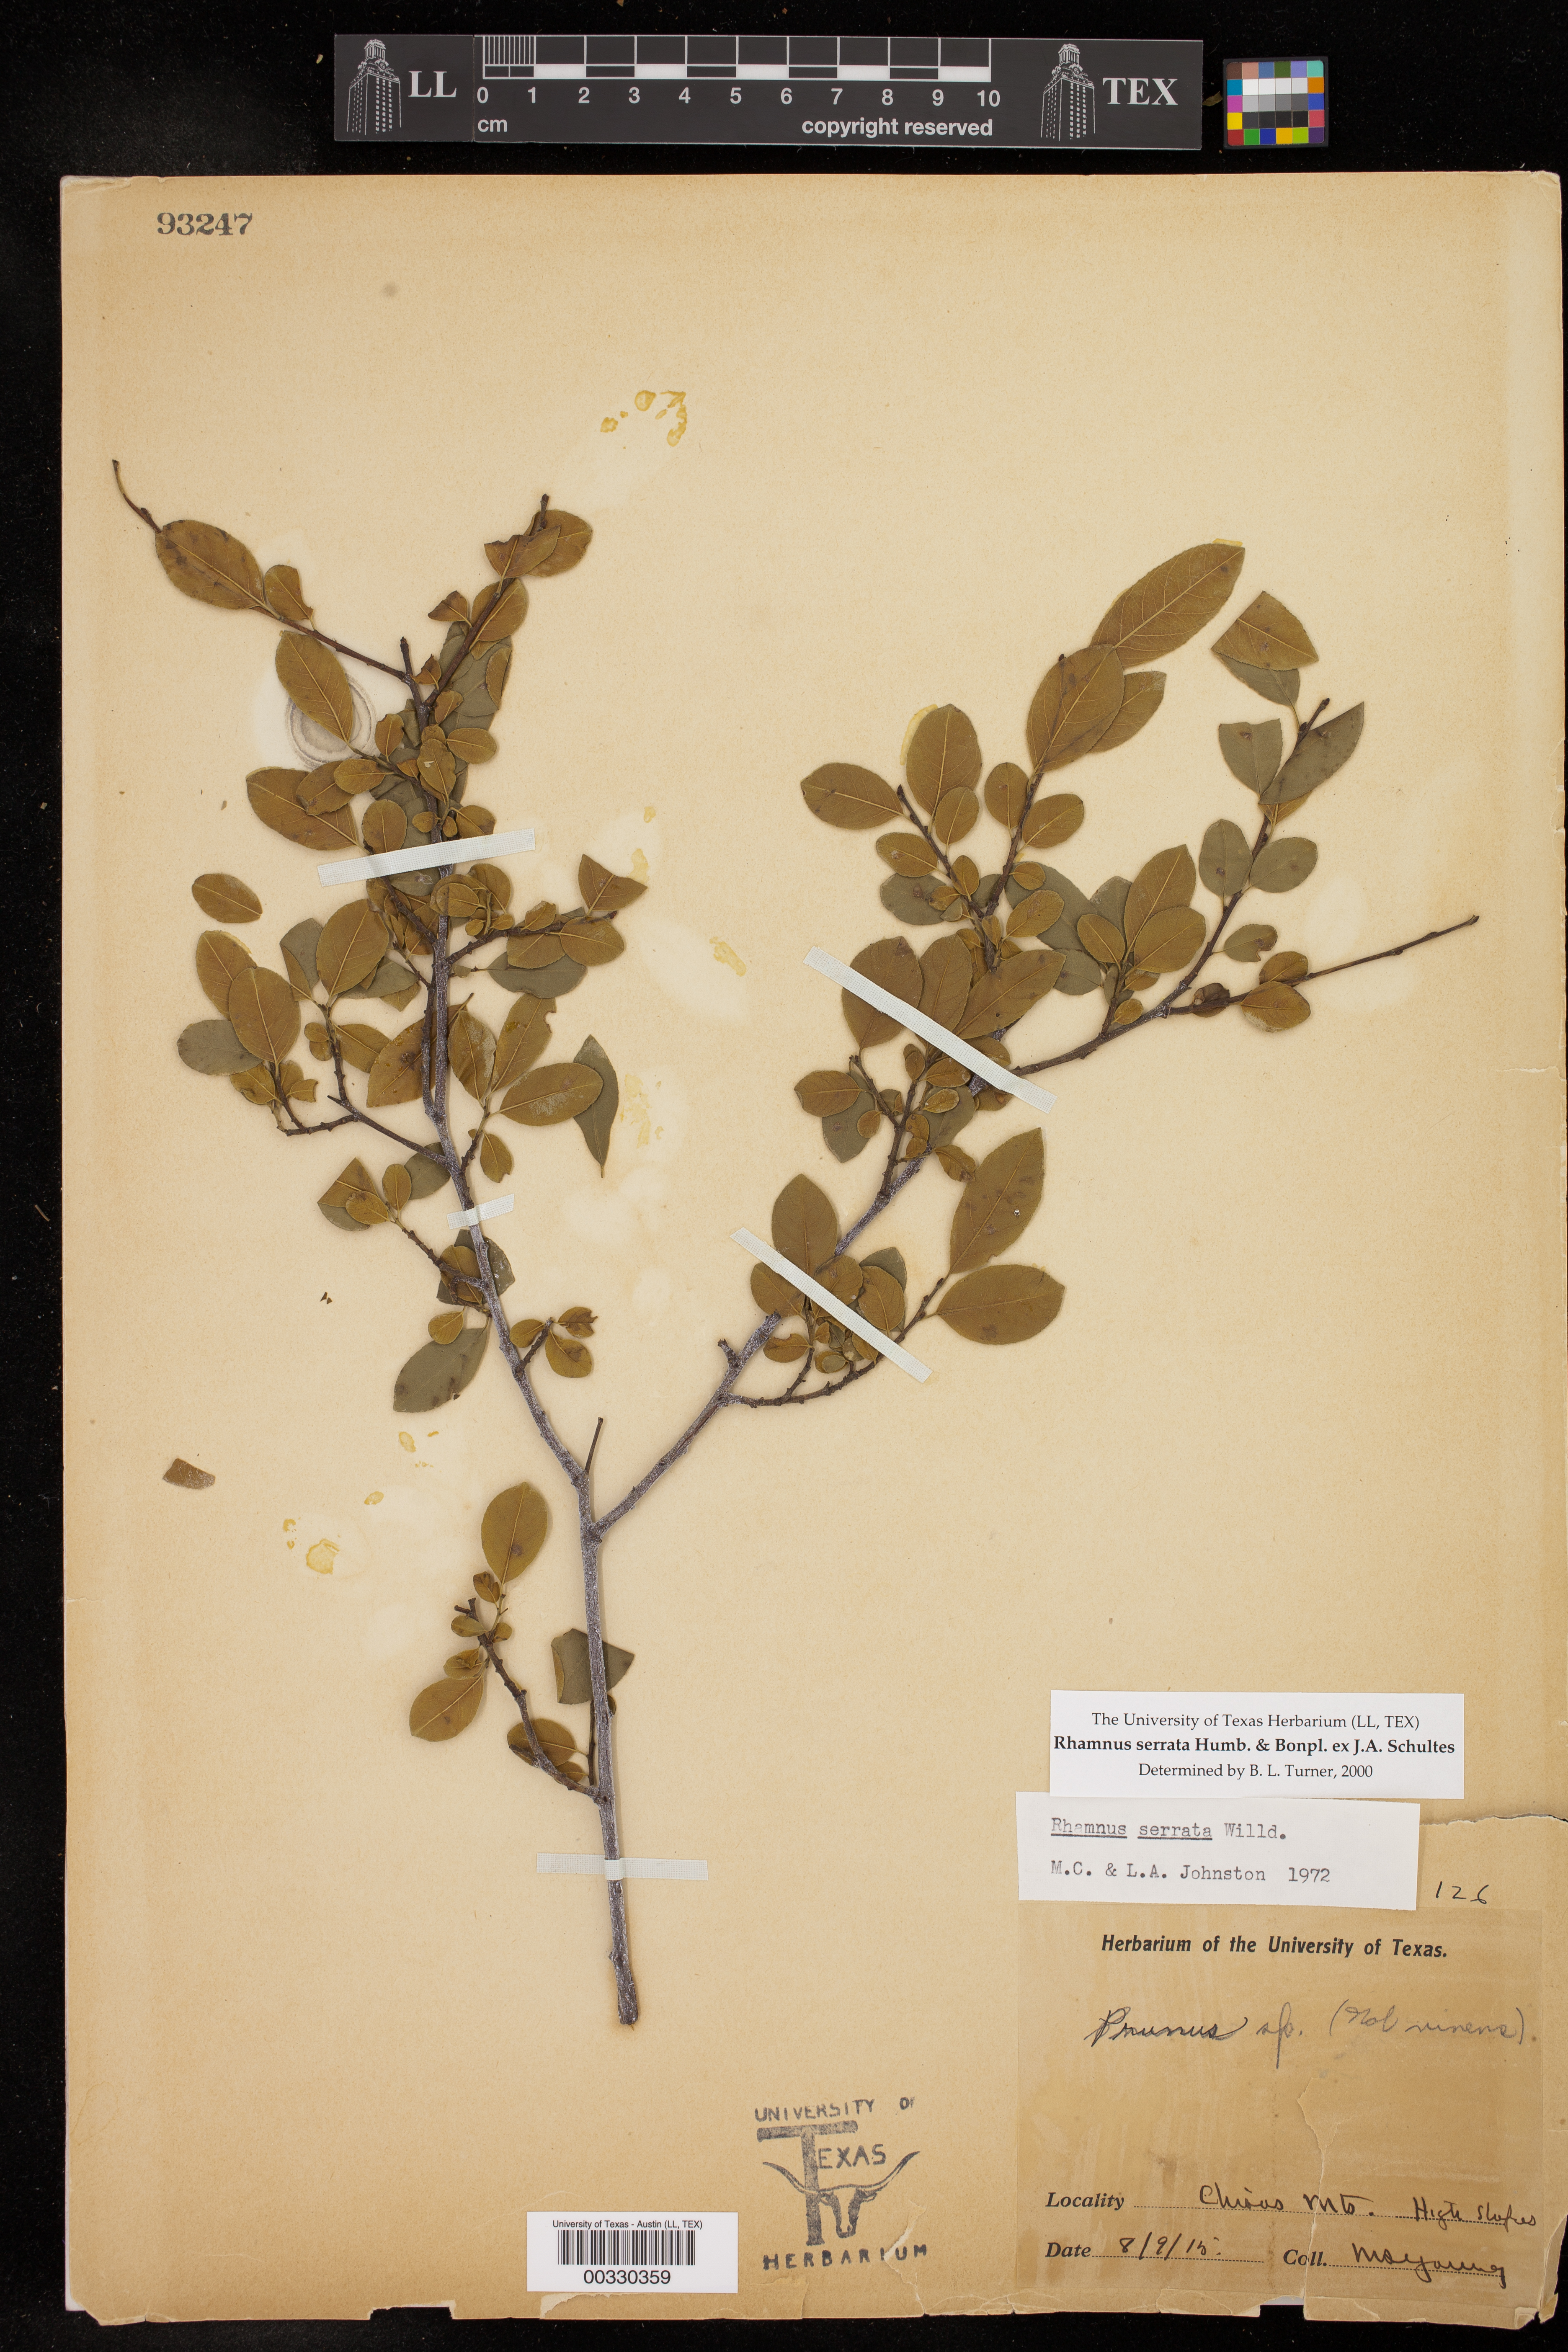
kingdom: Plantae
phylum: Tracheophyta
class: Magnoliopsida
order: Rosales
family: Rhamnaceae
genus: Rhamnus
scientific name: Rhamnus serrata
